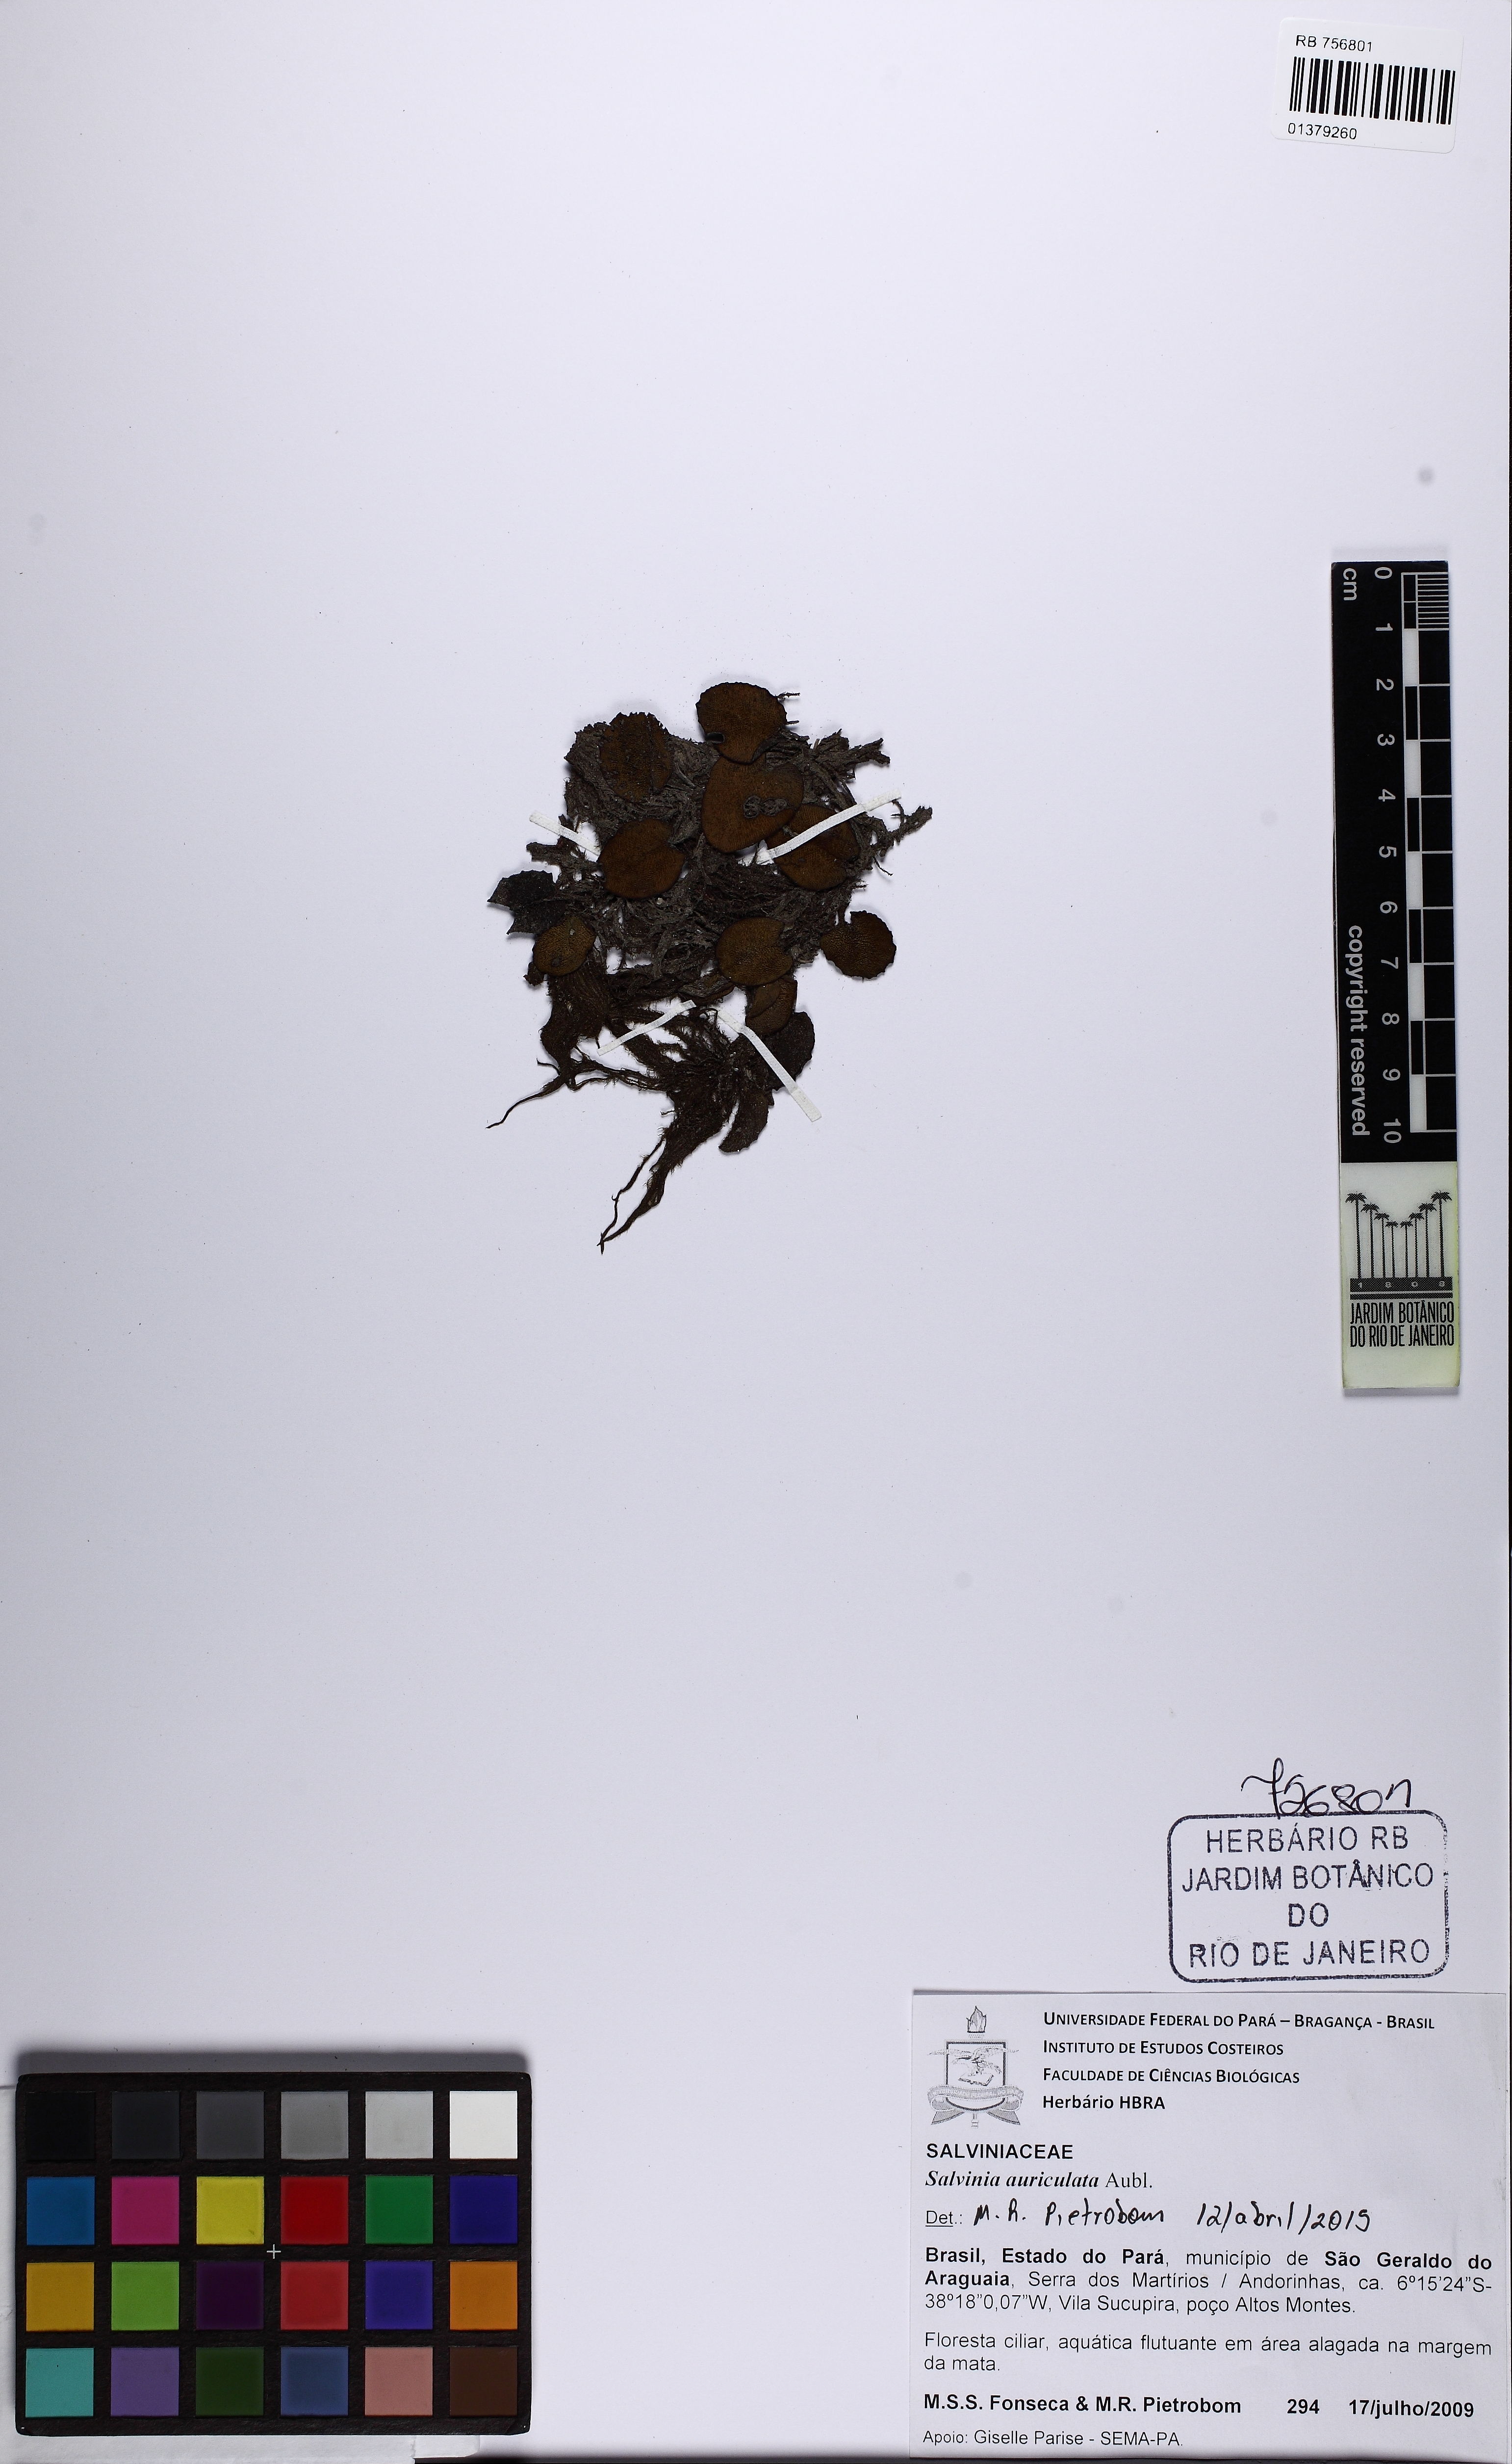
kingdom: Plantae
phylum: Tracheophyta
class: Polypodiopsida
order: Salviniales
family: Salviniaceae
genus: Salvinia
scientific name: Salvinia auriculata
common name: African payal
